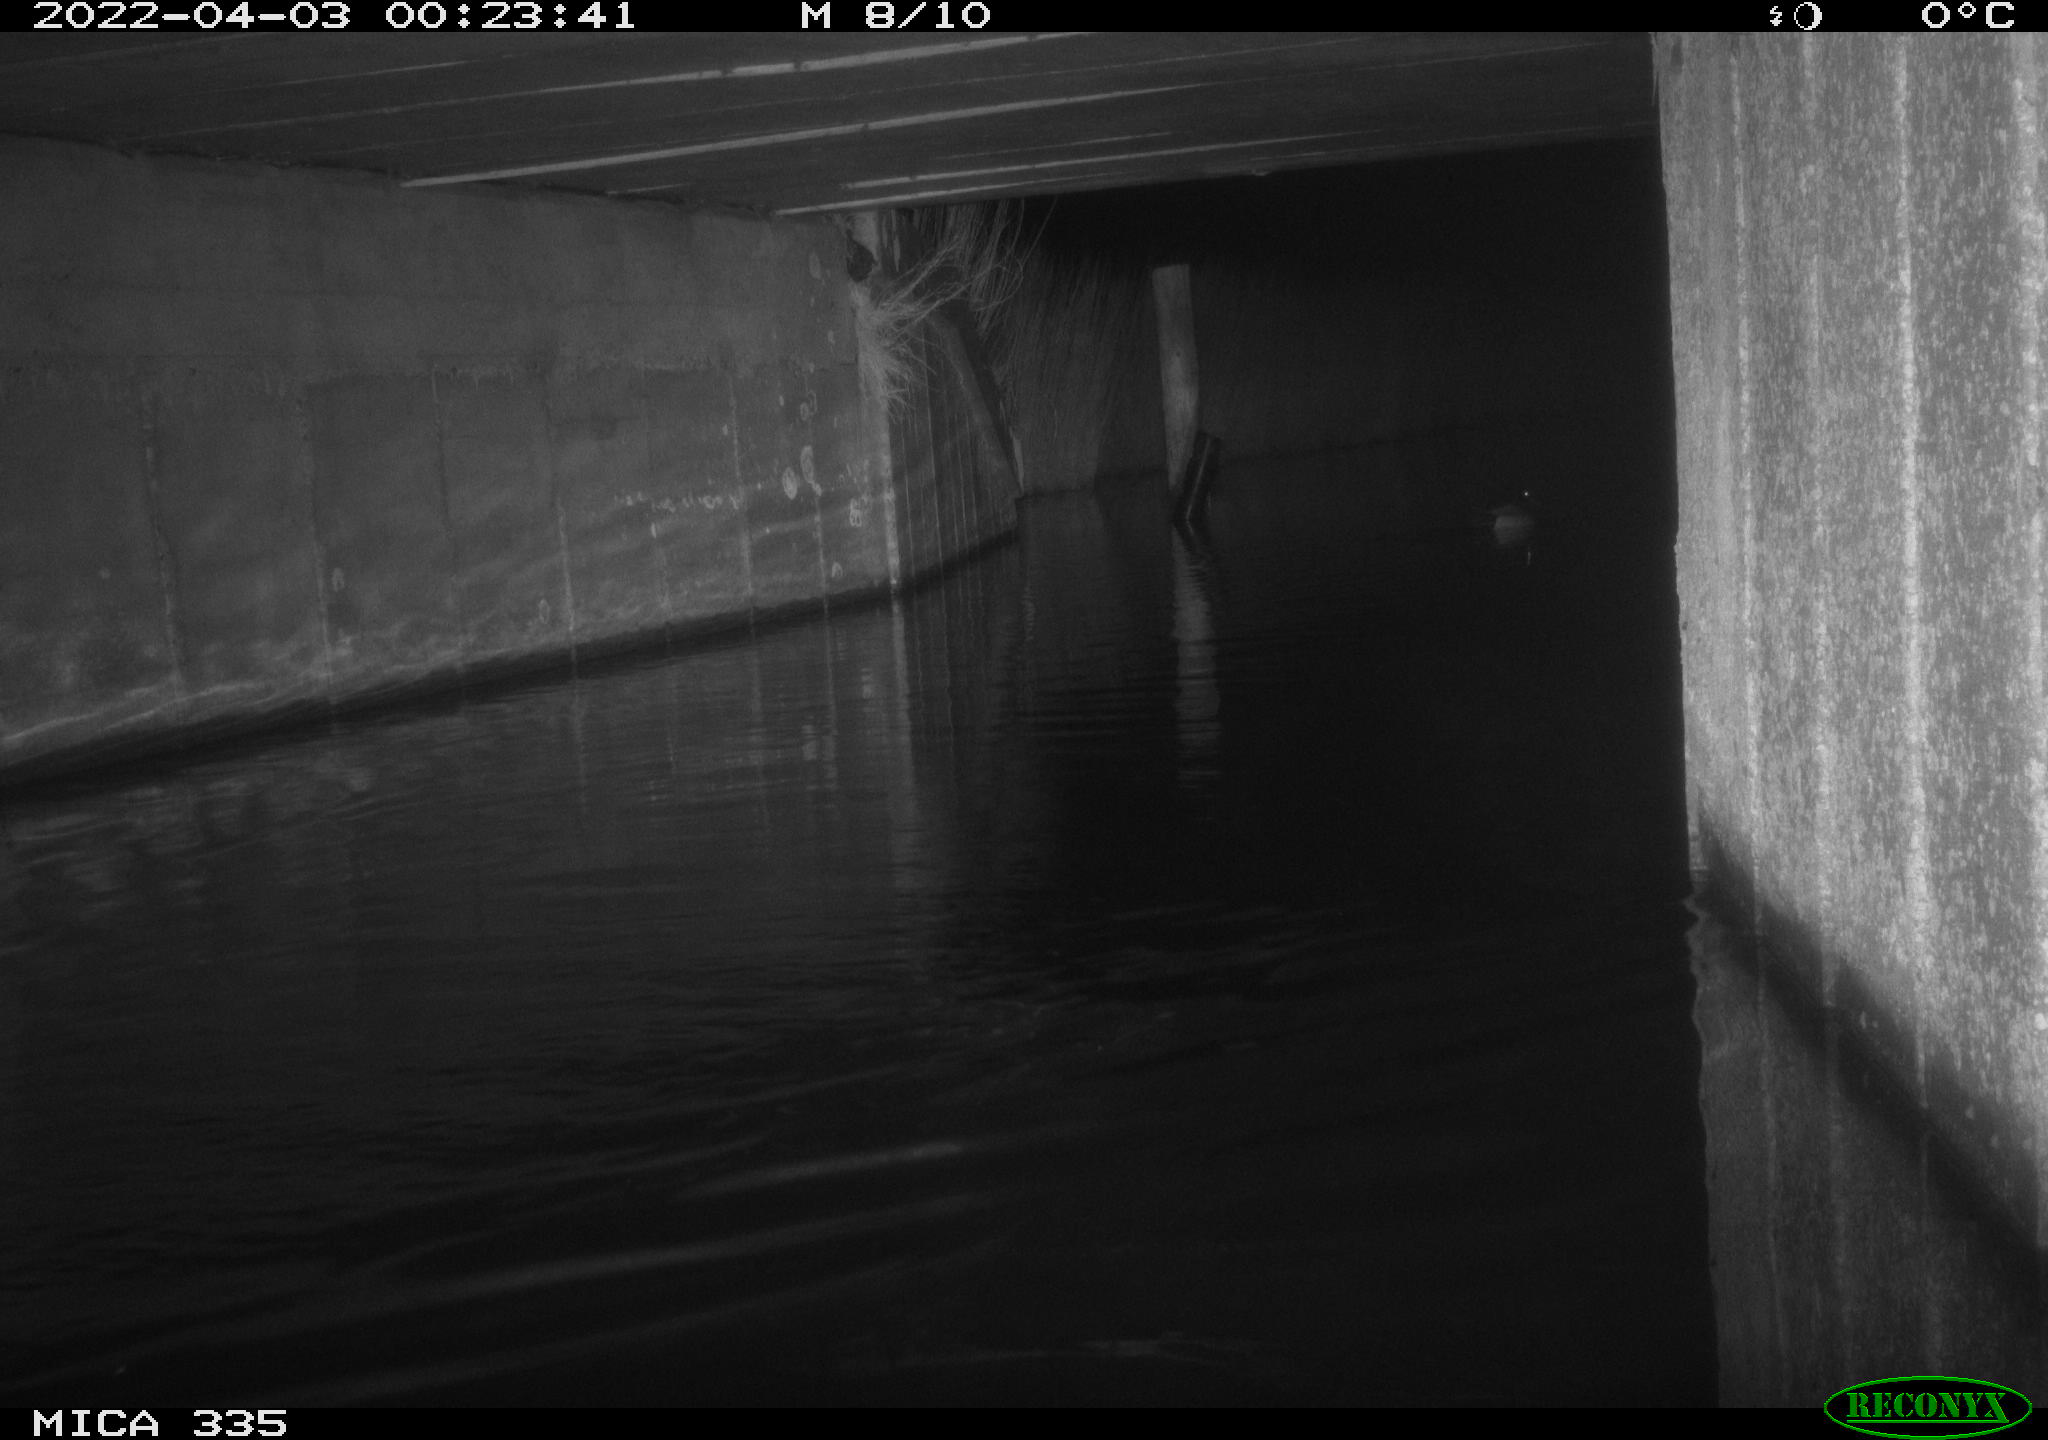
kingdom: Animalia
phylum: Chordata
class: Aves
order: Anseriformes
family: Anatidae
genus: Anas
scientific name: Anas platyrhynchos
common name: Mallard
